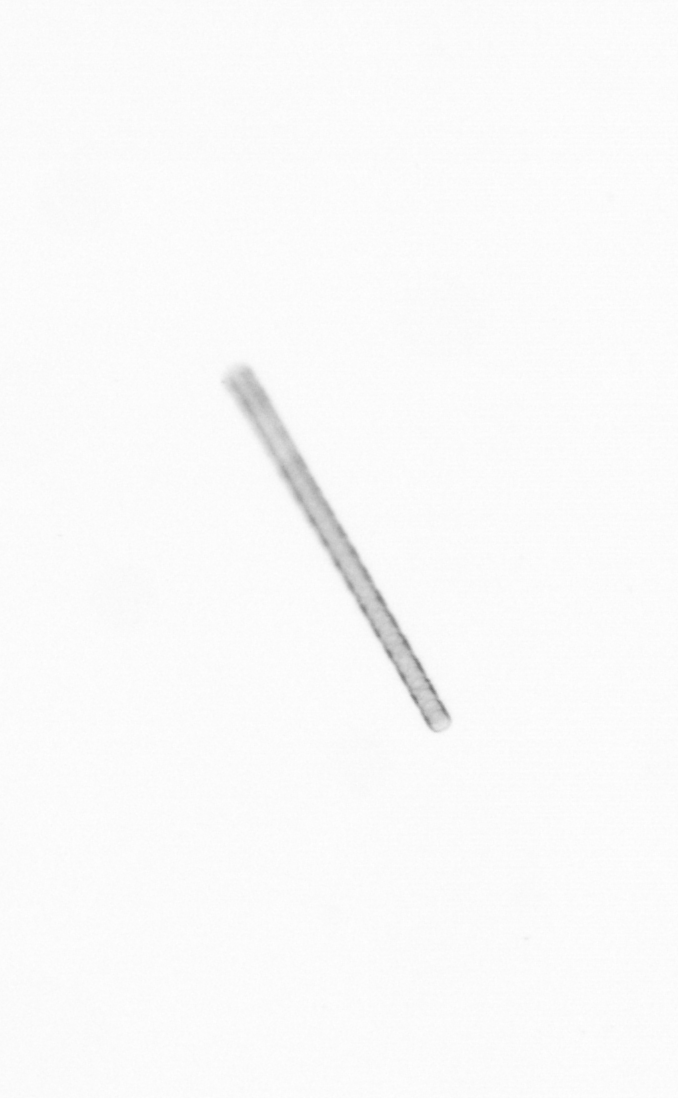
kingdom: Chromista
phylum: Ochrophyta
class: Bacillariophyceae
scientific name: Bacillariophyceae
